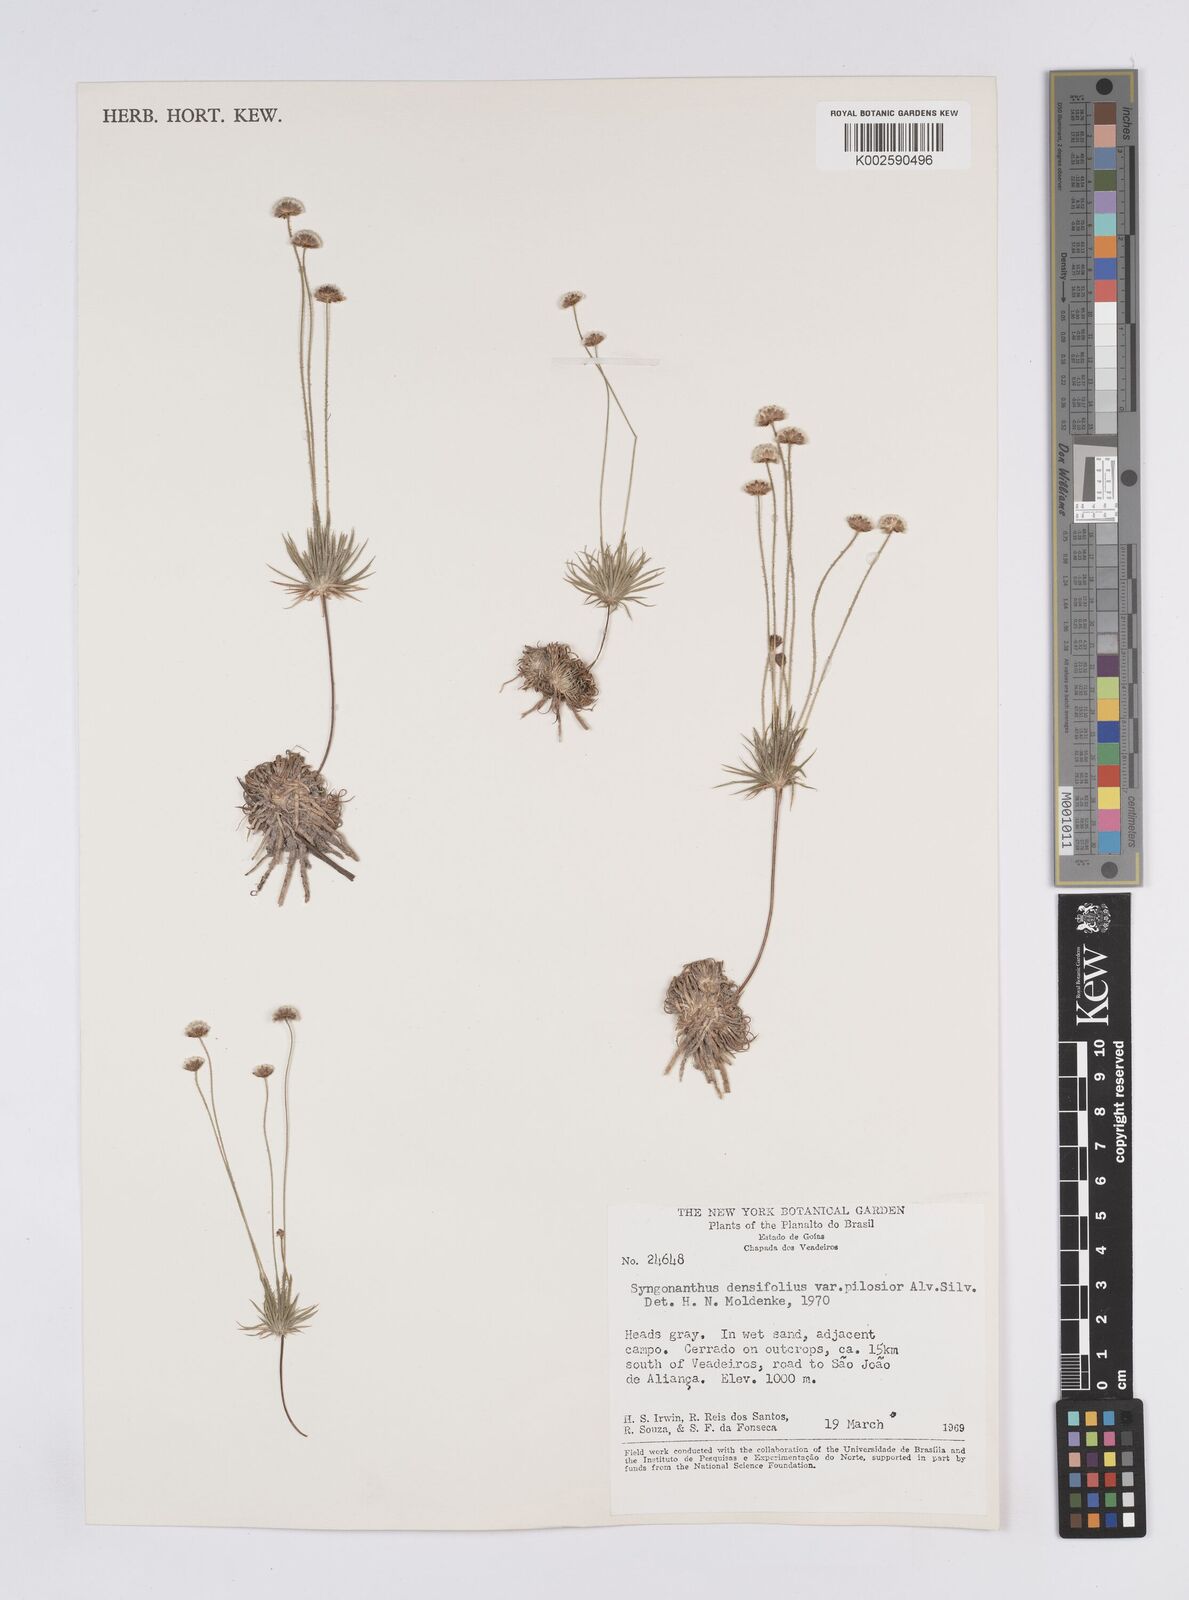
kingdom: Plantae
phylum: Tracheophyta
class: Liliopsida
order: Poales
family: Eriocaulaceae
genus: Syngonanthus
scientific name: Syngonanthus densifolius
